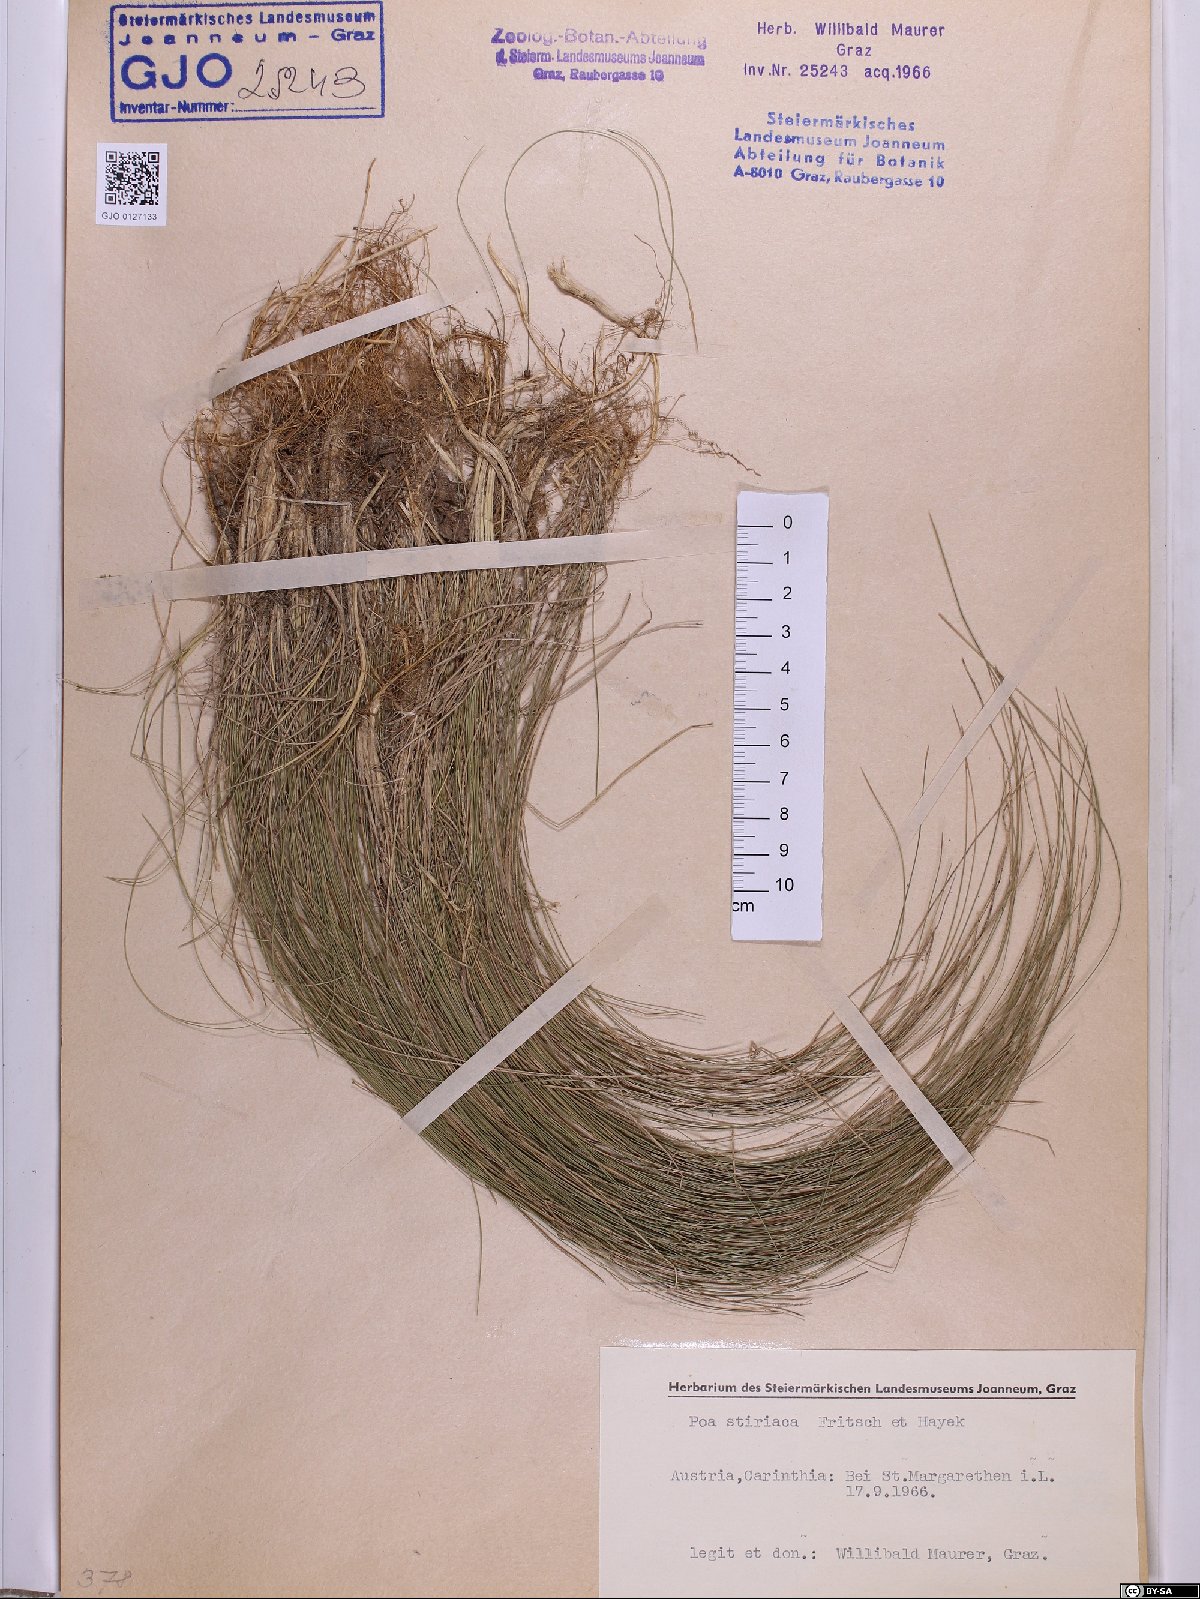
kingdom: Plantae
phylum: Tracheophyta
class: Liliopsida
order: Poales
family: Poaceae
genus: Poa
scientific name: Poa stiriaca
